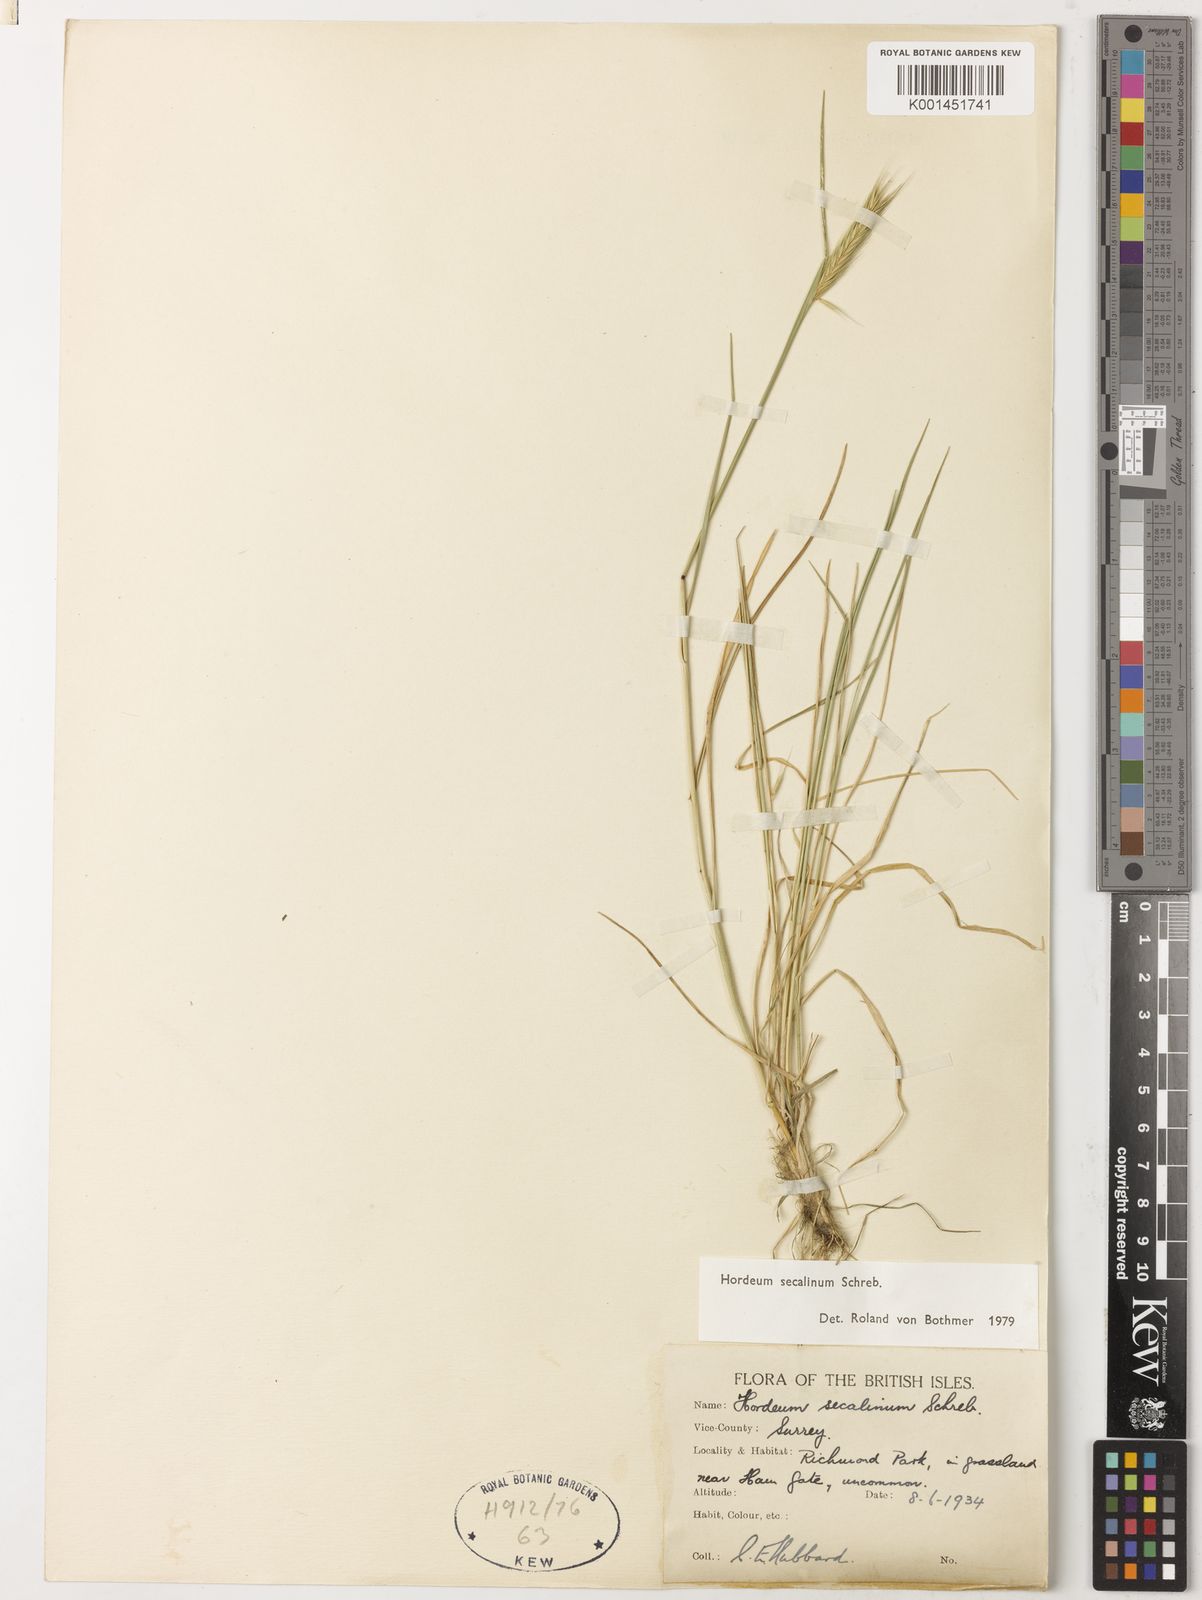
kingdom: Plantae
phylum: Tracheophyta
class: Liliopsida
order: Poales
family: Poaceae
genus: Hordeum
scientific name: Hordeum secalinum
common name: Meadow barley
